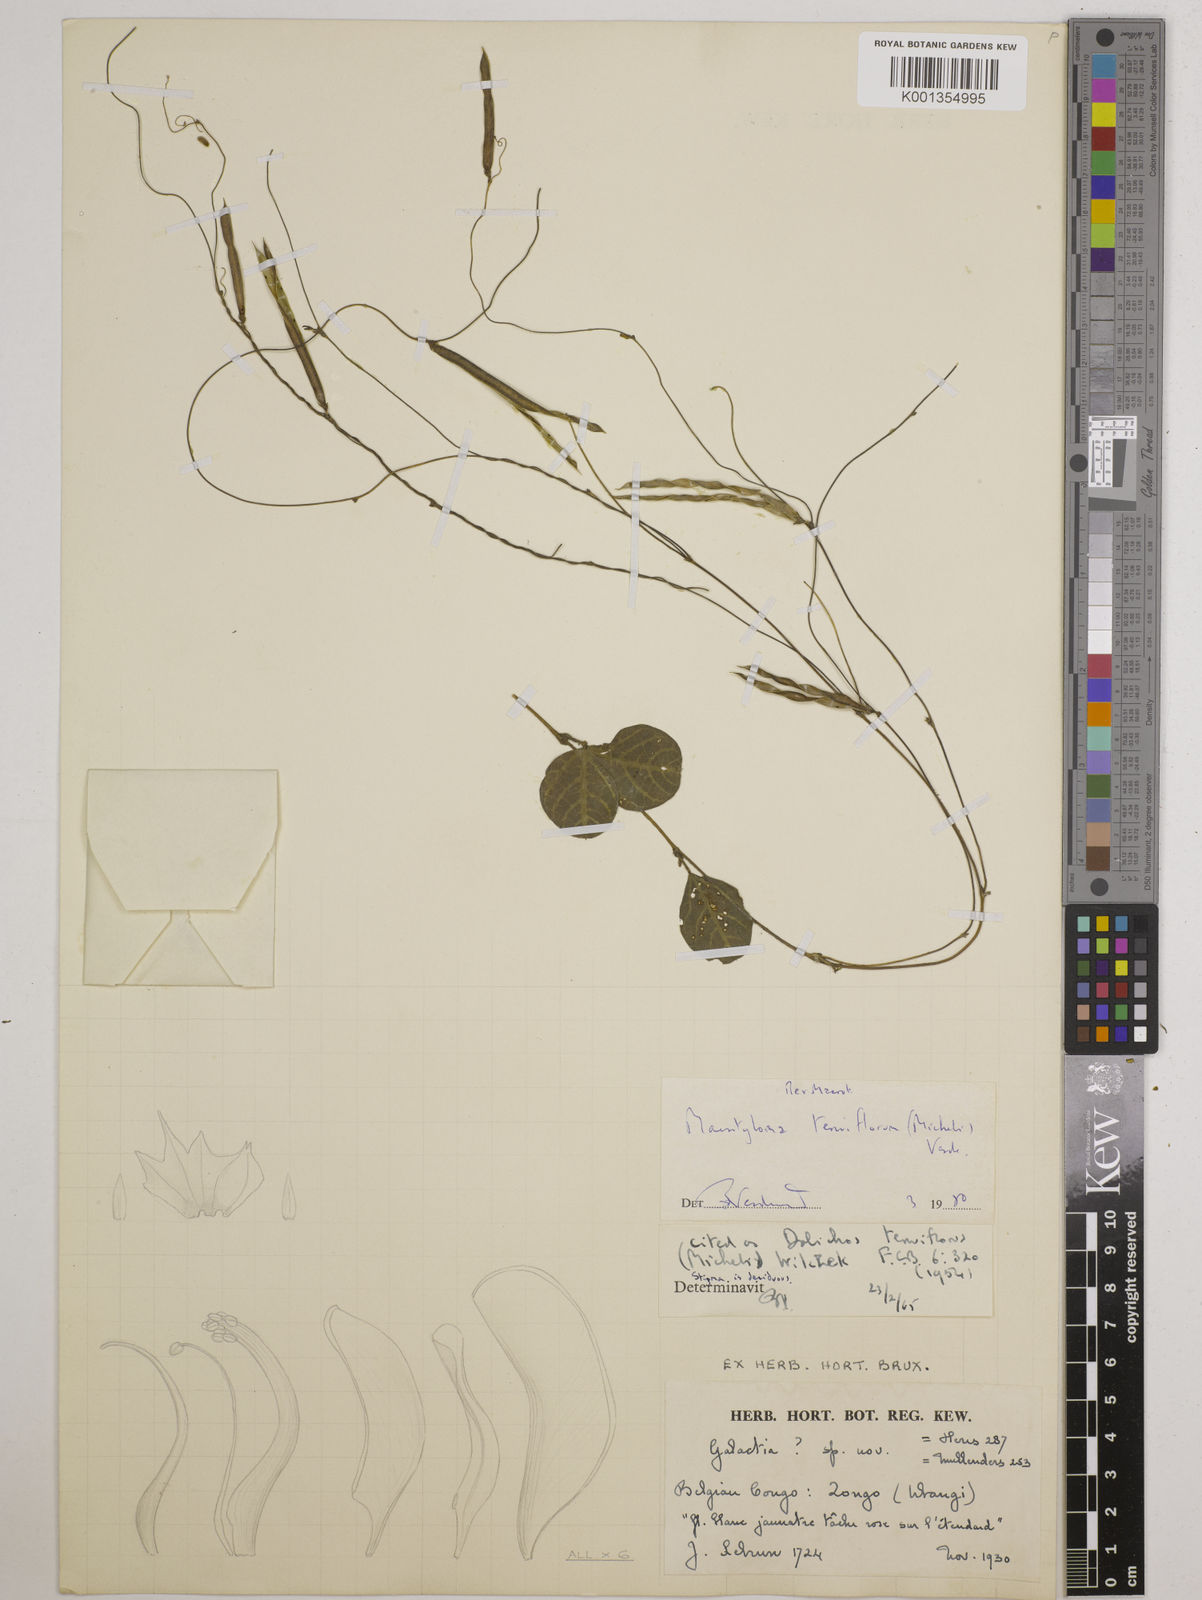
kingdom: Plantae
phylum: Tracheophyta
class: Magnoliopsida
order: Fabales
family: Fabaceae
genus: Macrotyloma
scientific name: Macrotyloma tenuiflorum
